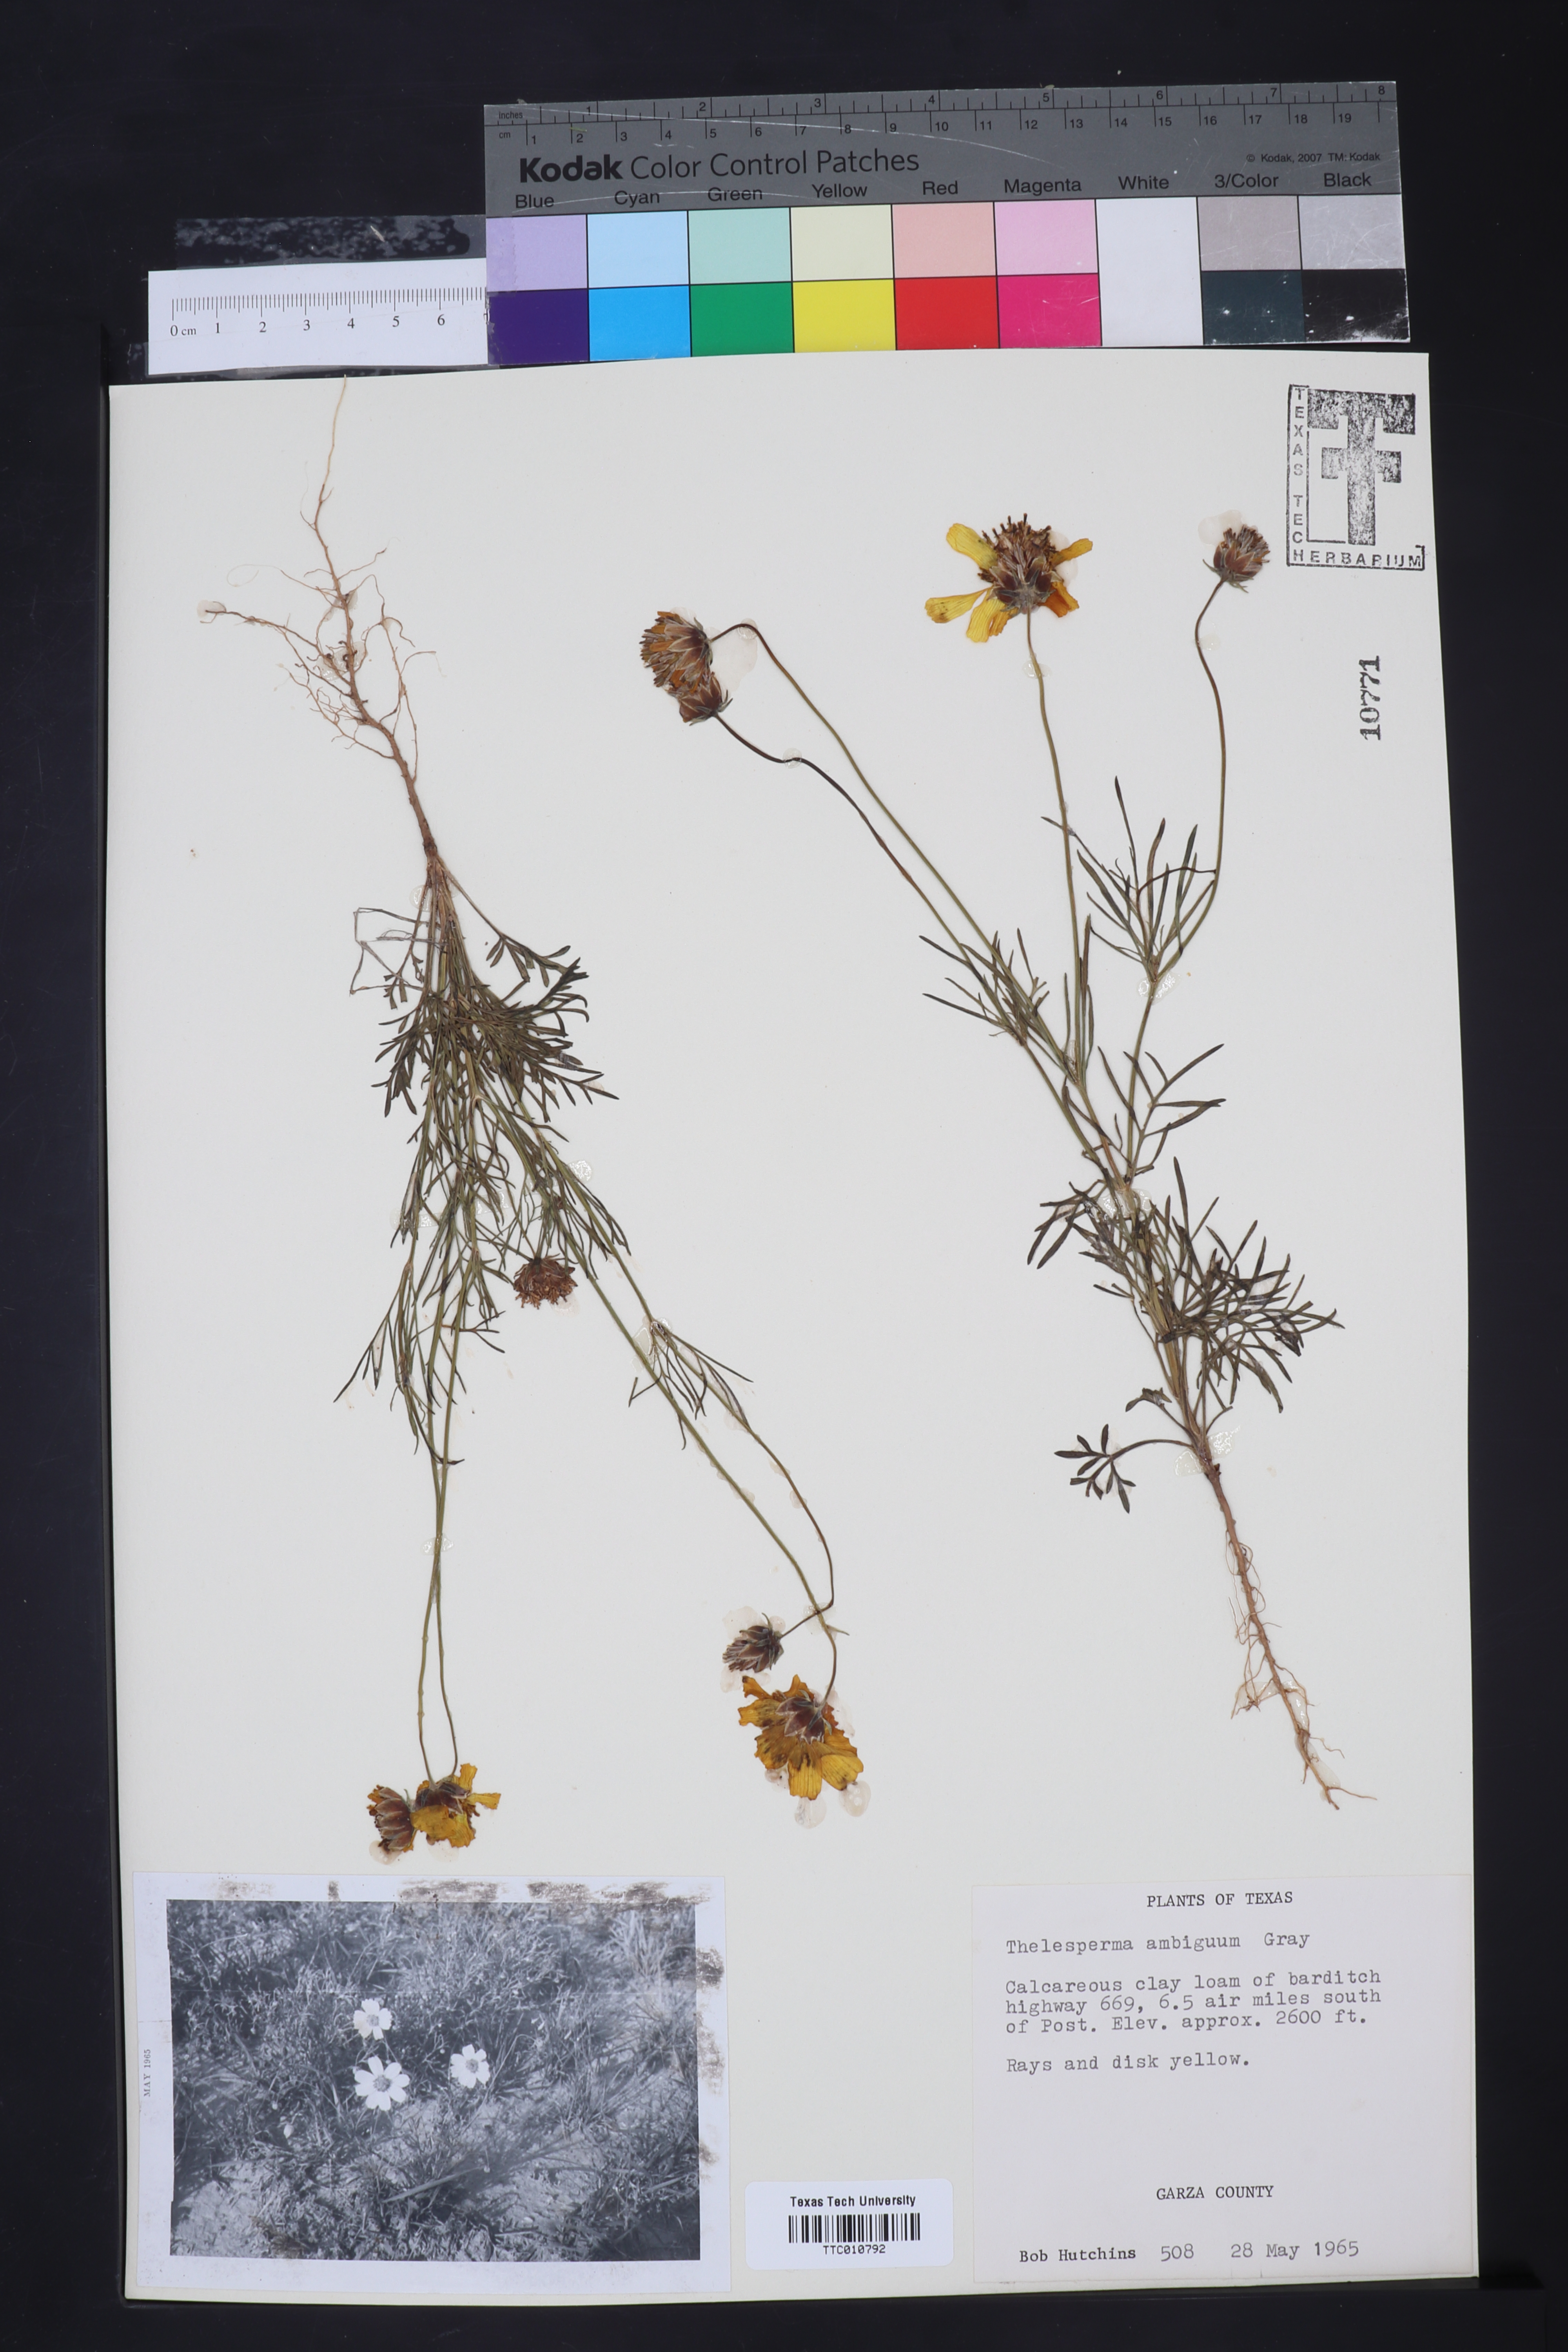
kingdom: Plantae
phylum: Tracheophyta
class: Magnoliopsida
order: Asterales
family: Asteraceae
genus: Thelesperma
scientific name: Thelesperma ambiguum
